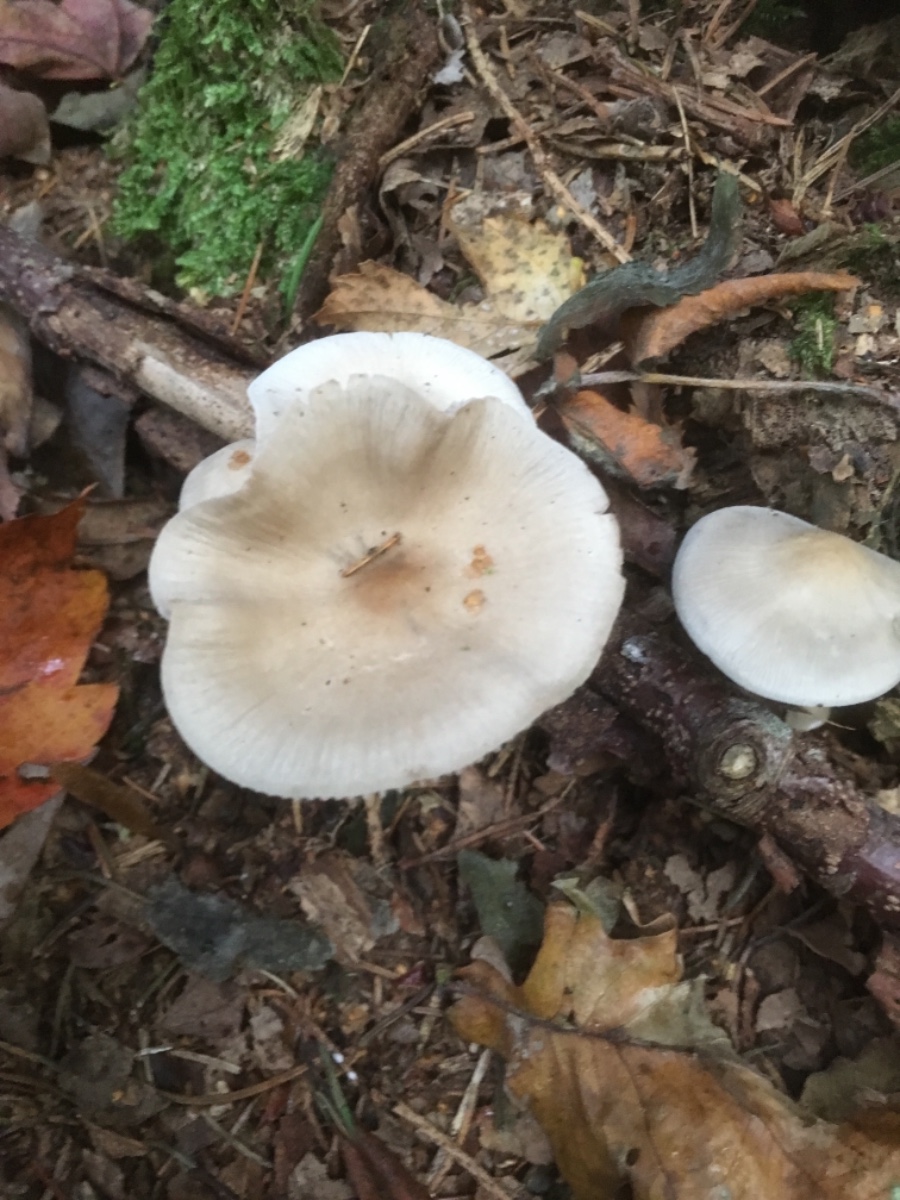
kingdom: Fungi
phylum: Basidiomycota
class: Agaricomycetes
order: Agaricales
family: Mycenaceae
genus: Mycena
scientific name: Mycena galericulata
